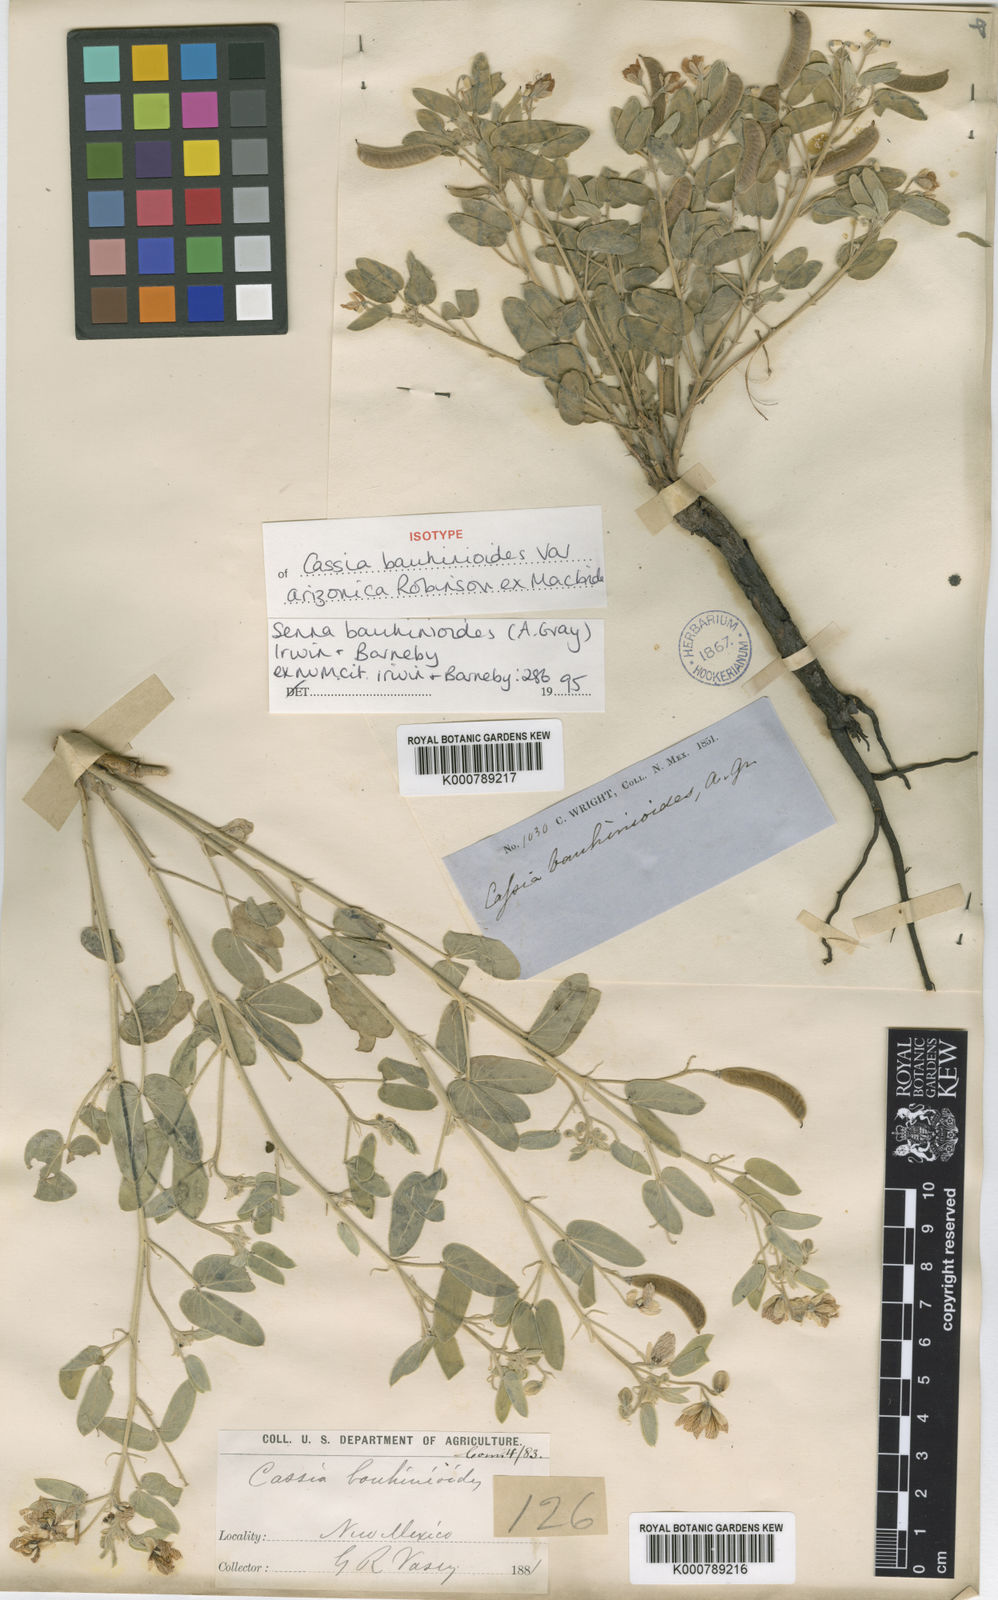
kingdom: Plantae
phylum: Tracheophyta
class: Magnoliopsida
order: Fabales
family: Fabaceae
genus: Senna
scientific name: Senna bauhinioides
